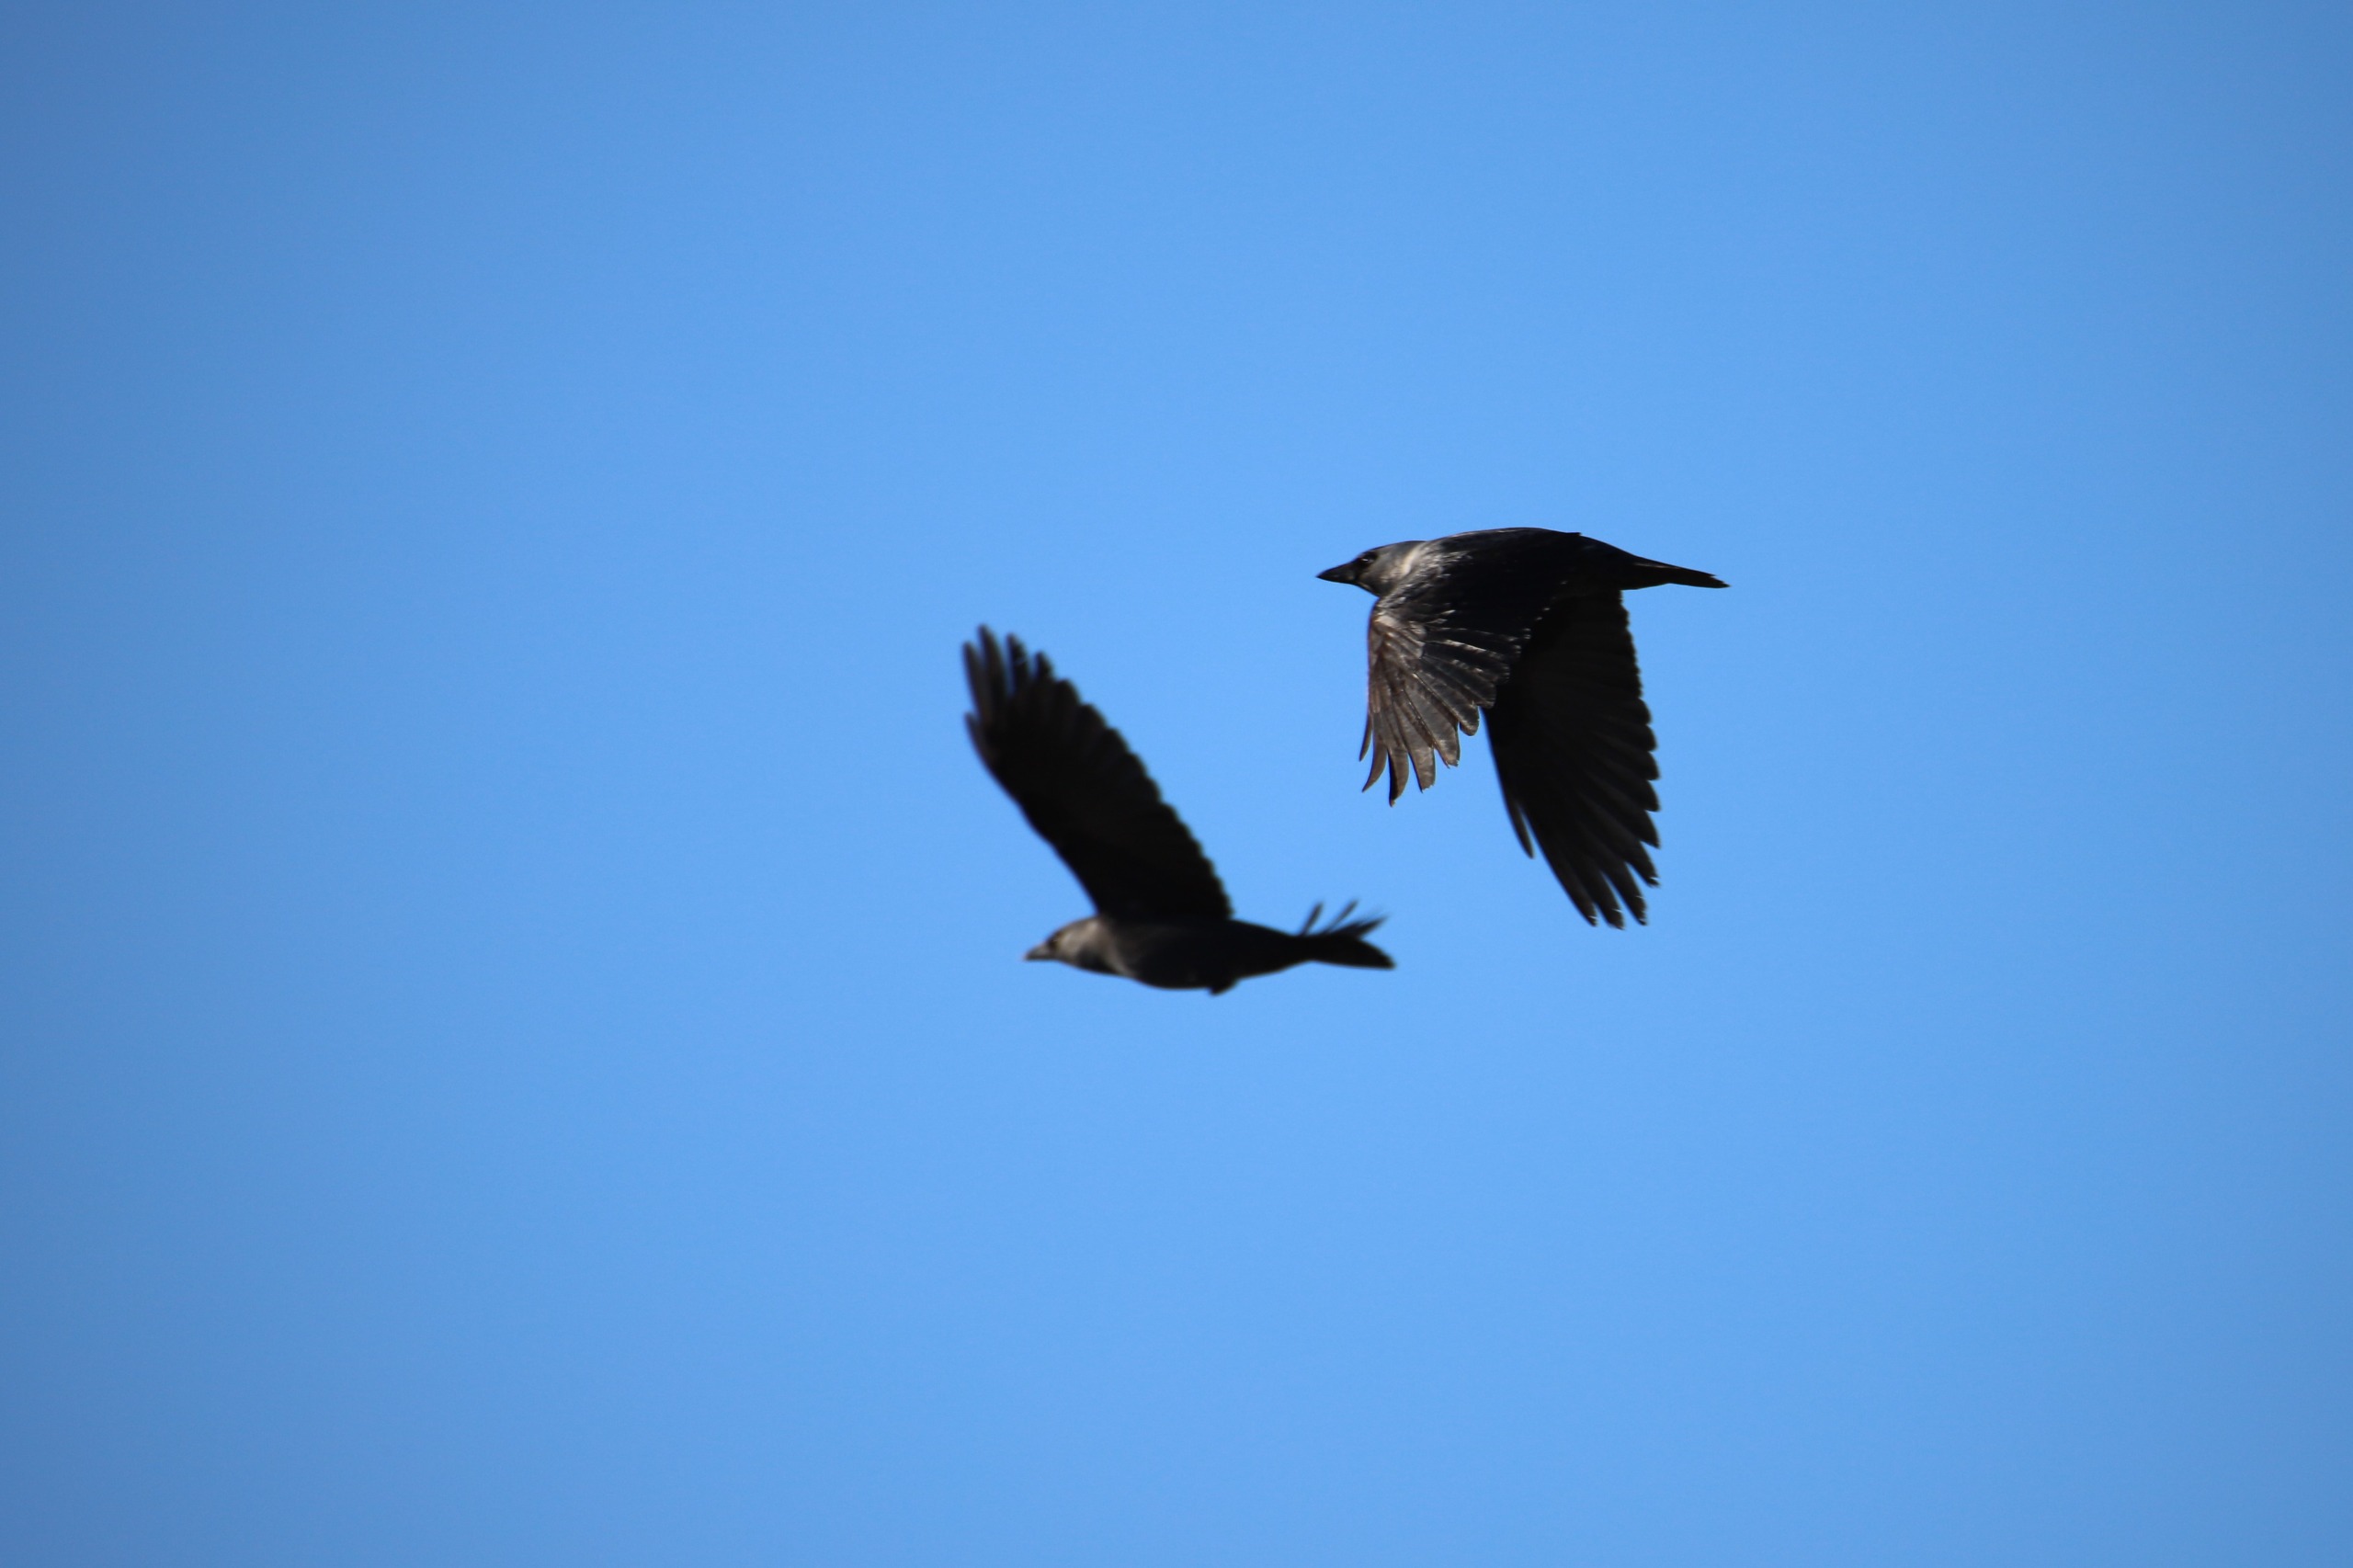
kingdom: Animalia
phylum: Chordata
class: Aves
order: Passeriformes
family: Corvidae
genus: Coloeus
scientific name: Coloeus monedula
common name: Allike
